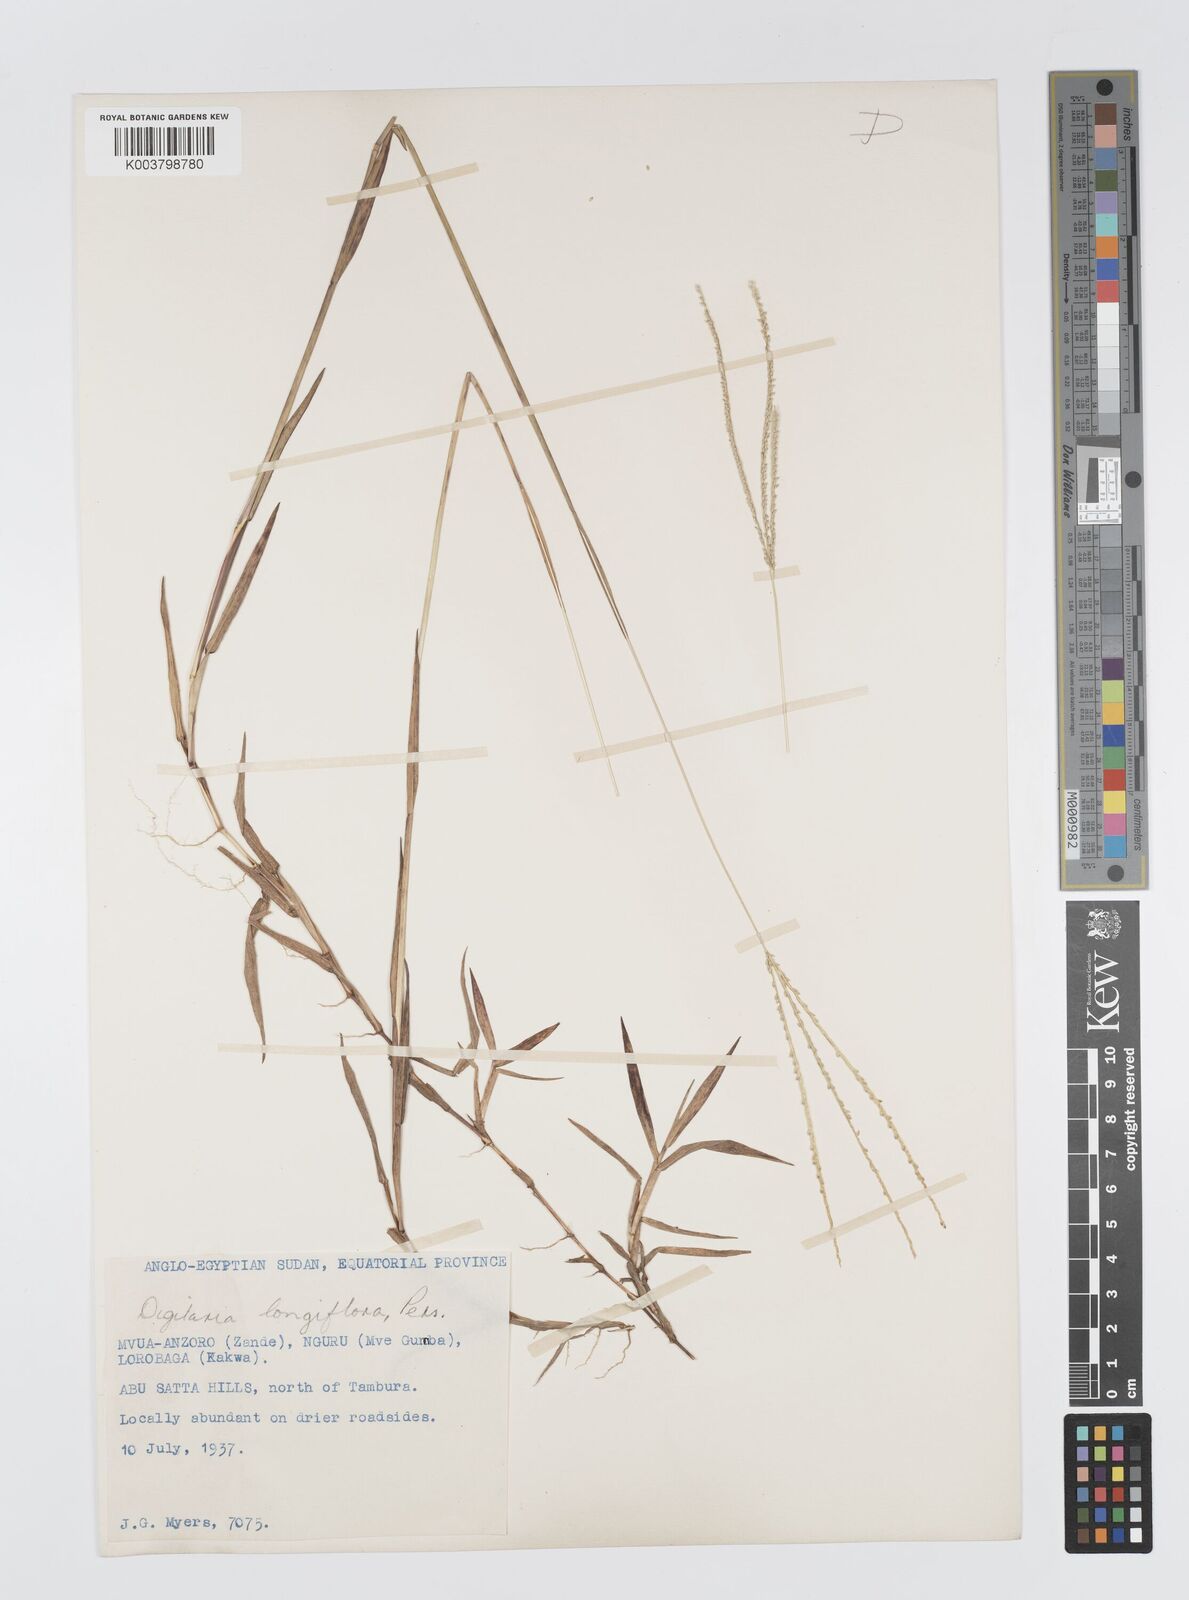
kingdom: Plantae
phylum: Tracheophyta
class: Liliopsida
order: Poales
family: Poaceae
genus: Digitaria
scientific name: Digitaria longiflora
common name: Wire crabgrass
